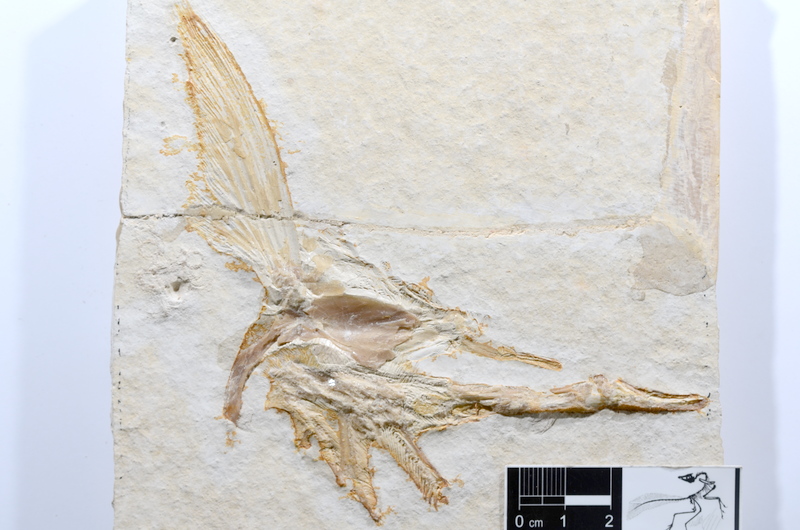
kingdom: Animalia
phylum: Chordata
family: Aspidorhynchidae
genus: Aspidorhynchus
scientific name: Aspidorhynchus acutirostris
